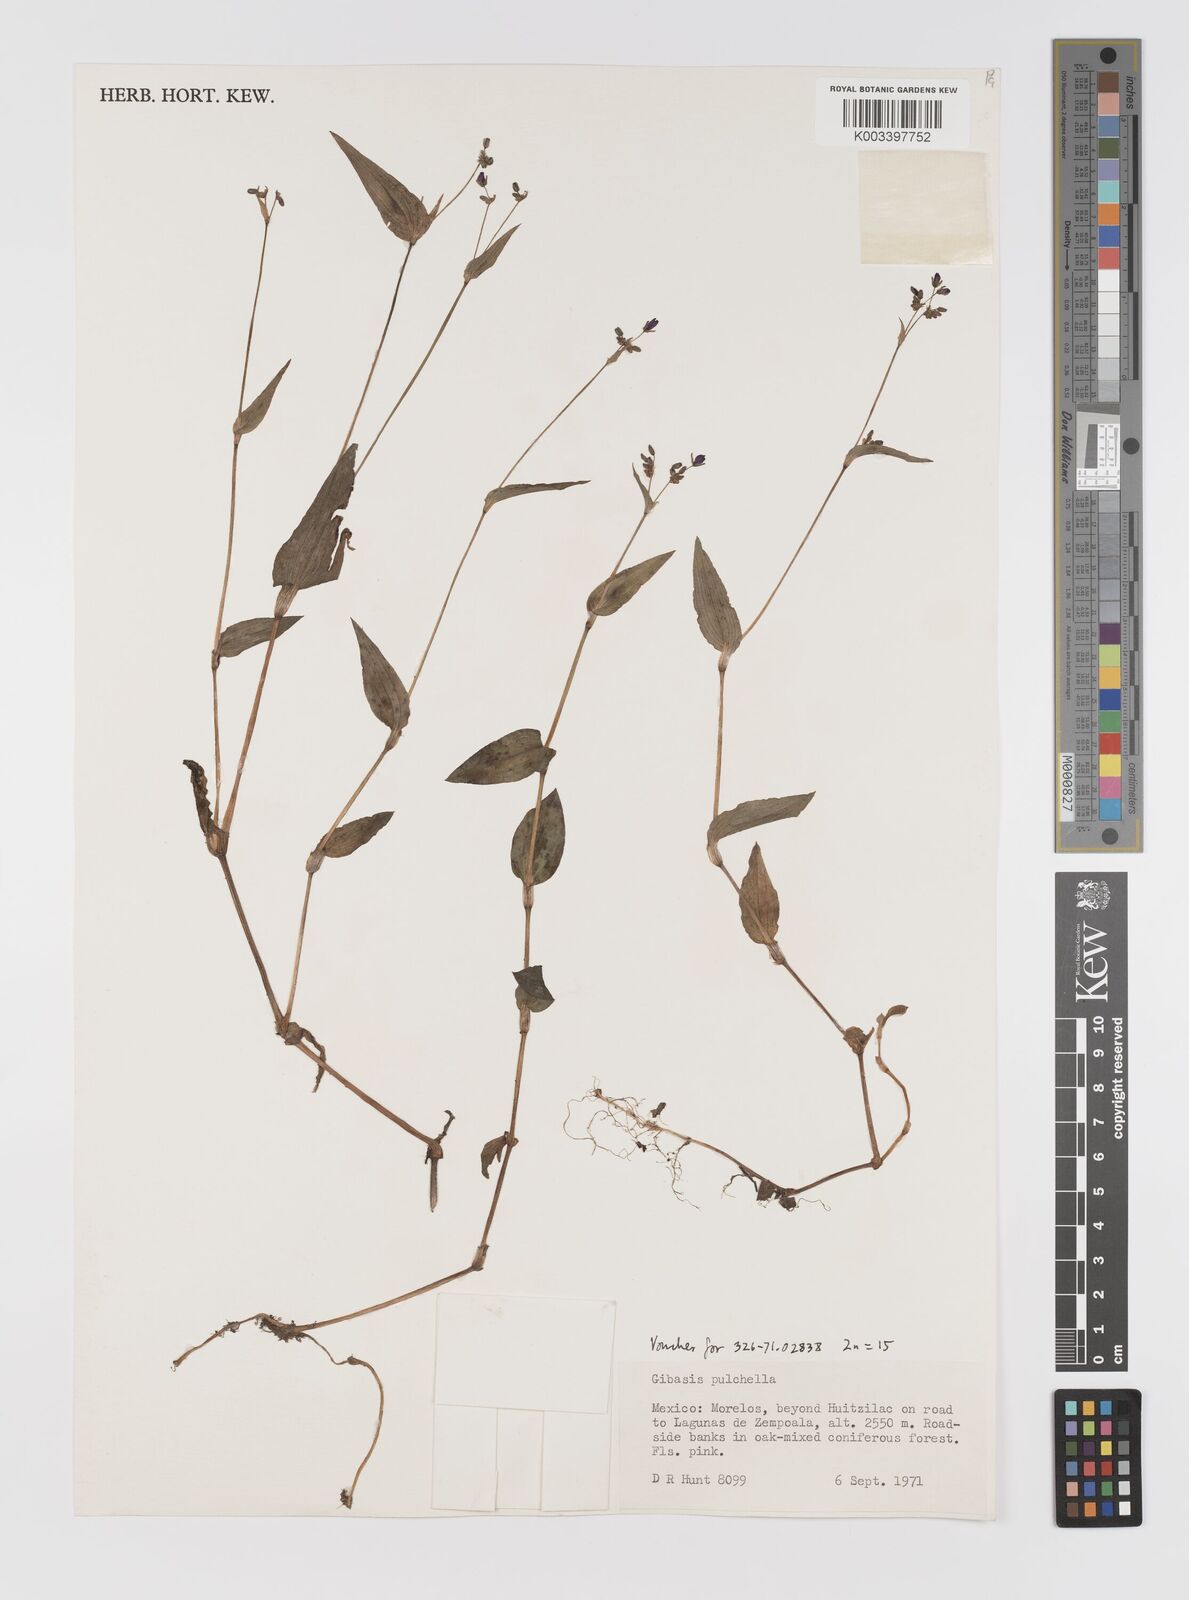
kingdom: Plantae
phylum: Tracheophyta
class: Liliopsida
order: Commelinales
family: Commelinaceae
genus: Gibasis
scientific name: Gibasis pulchella
